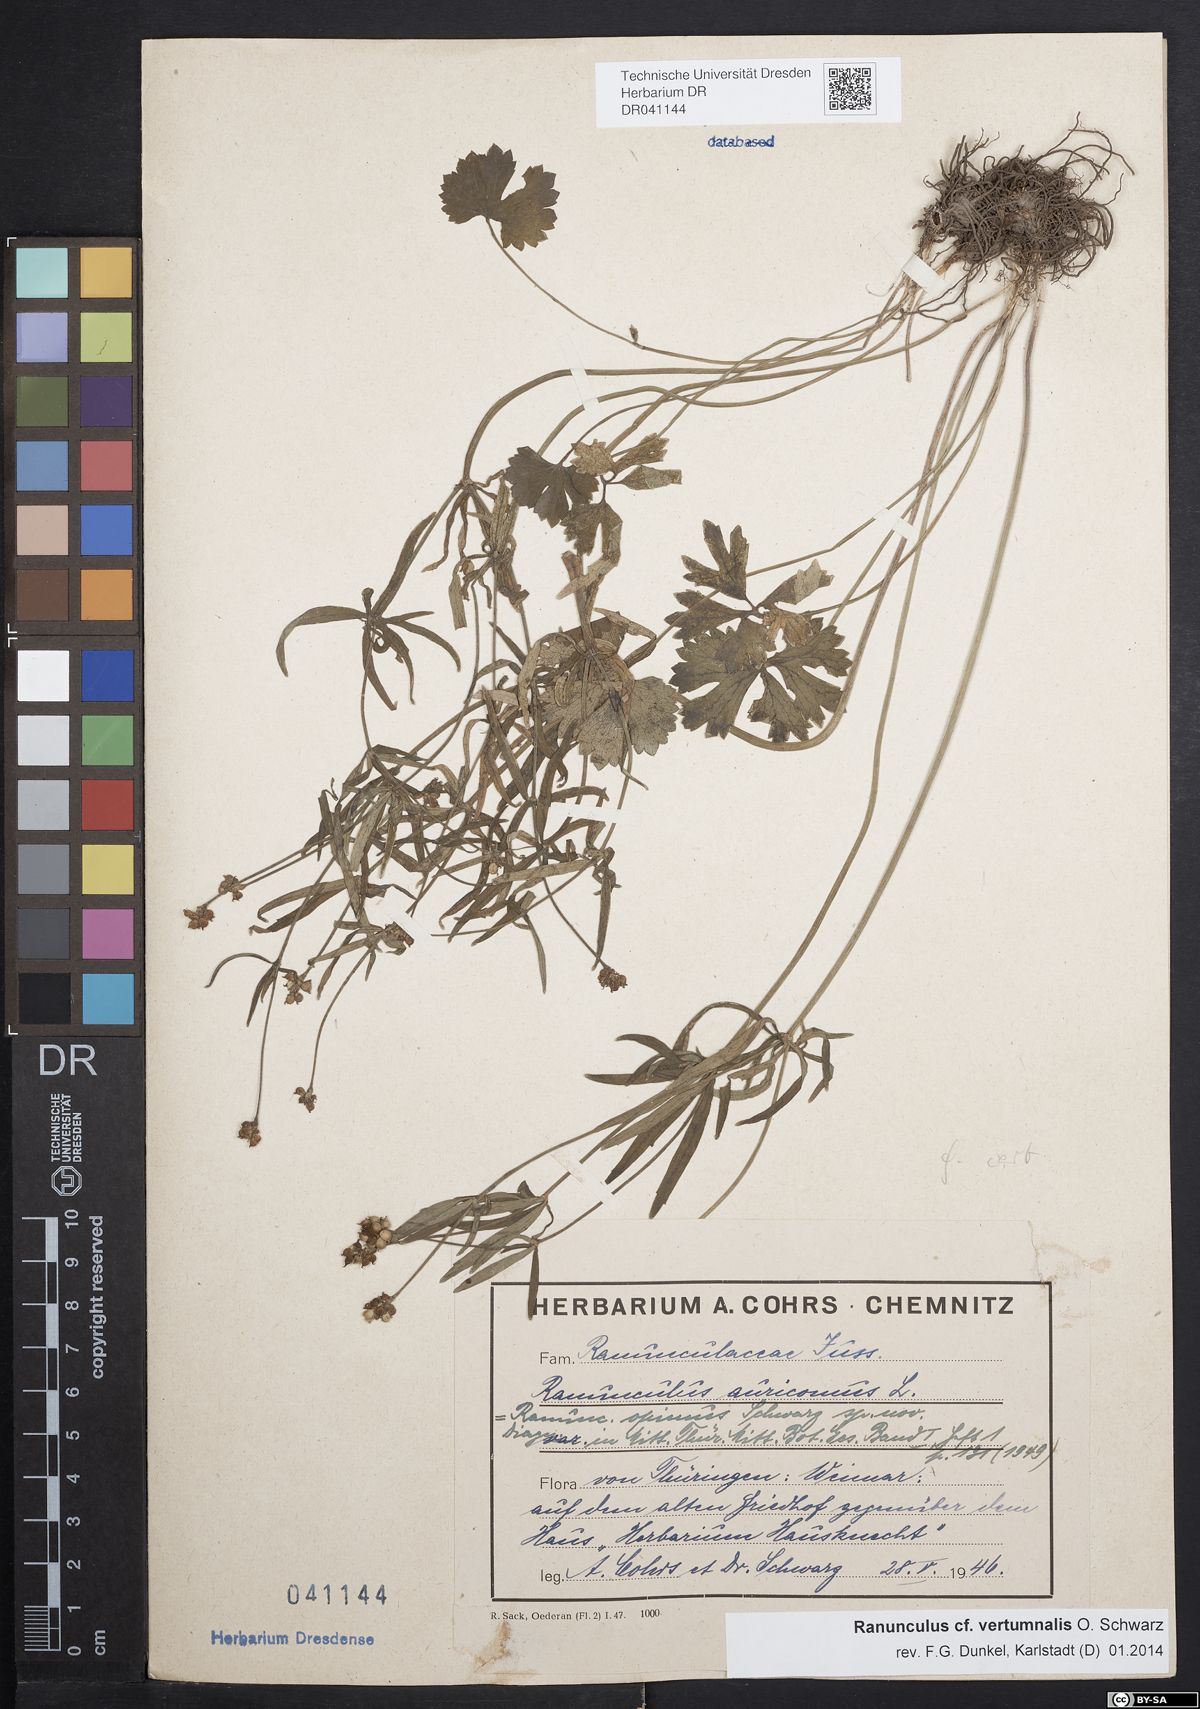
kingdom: Plantae
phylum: Tracheophyta
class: Magnoliopsida
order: Ranunculales
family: Ranunculaceae
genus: Ranunculus
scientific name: Ranunculus vertumnalis
